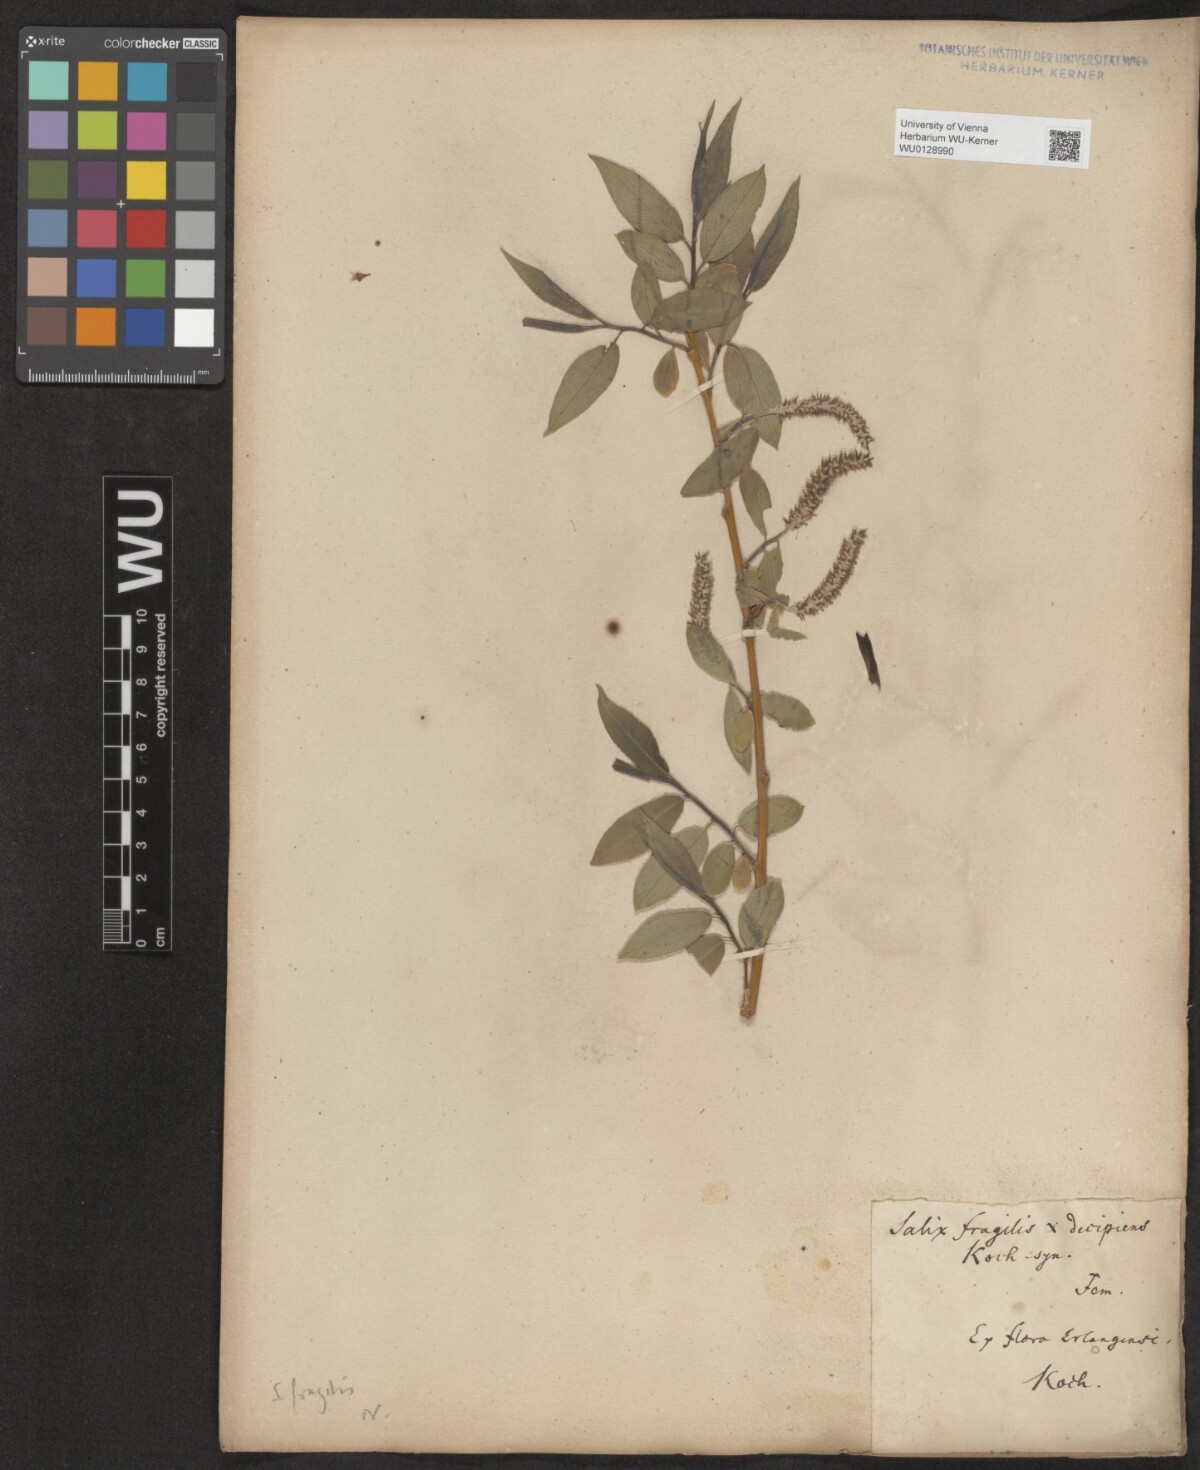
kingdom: Plantae
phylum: Tracheophyta
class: Magnoliopsida
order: Malpighiales
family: Salicaceae
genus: Salix
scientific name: Salix fragilis
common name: Crack willow
